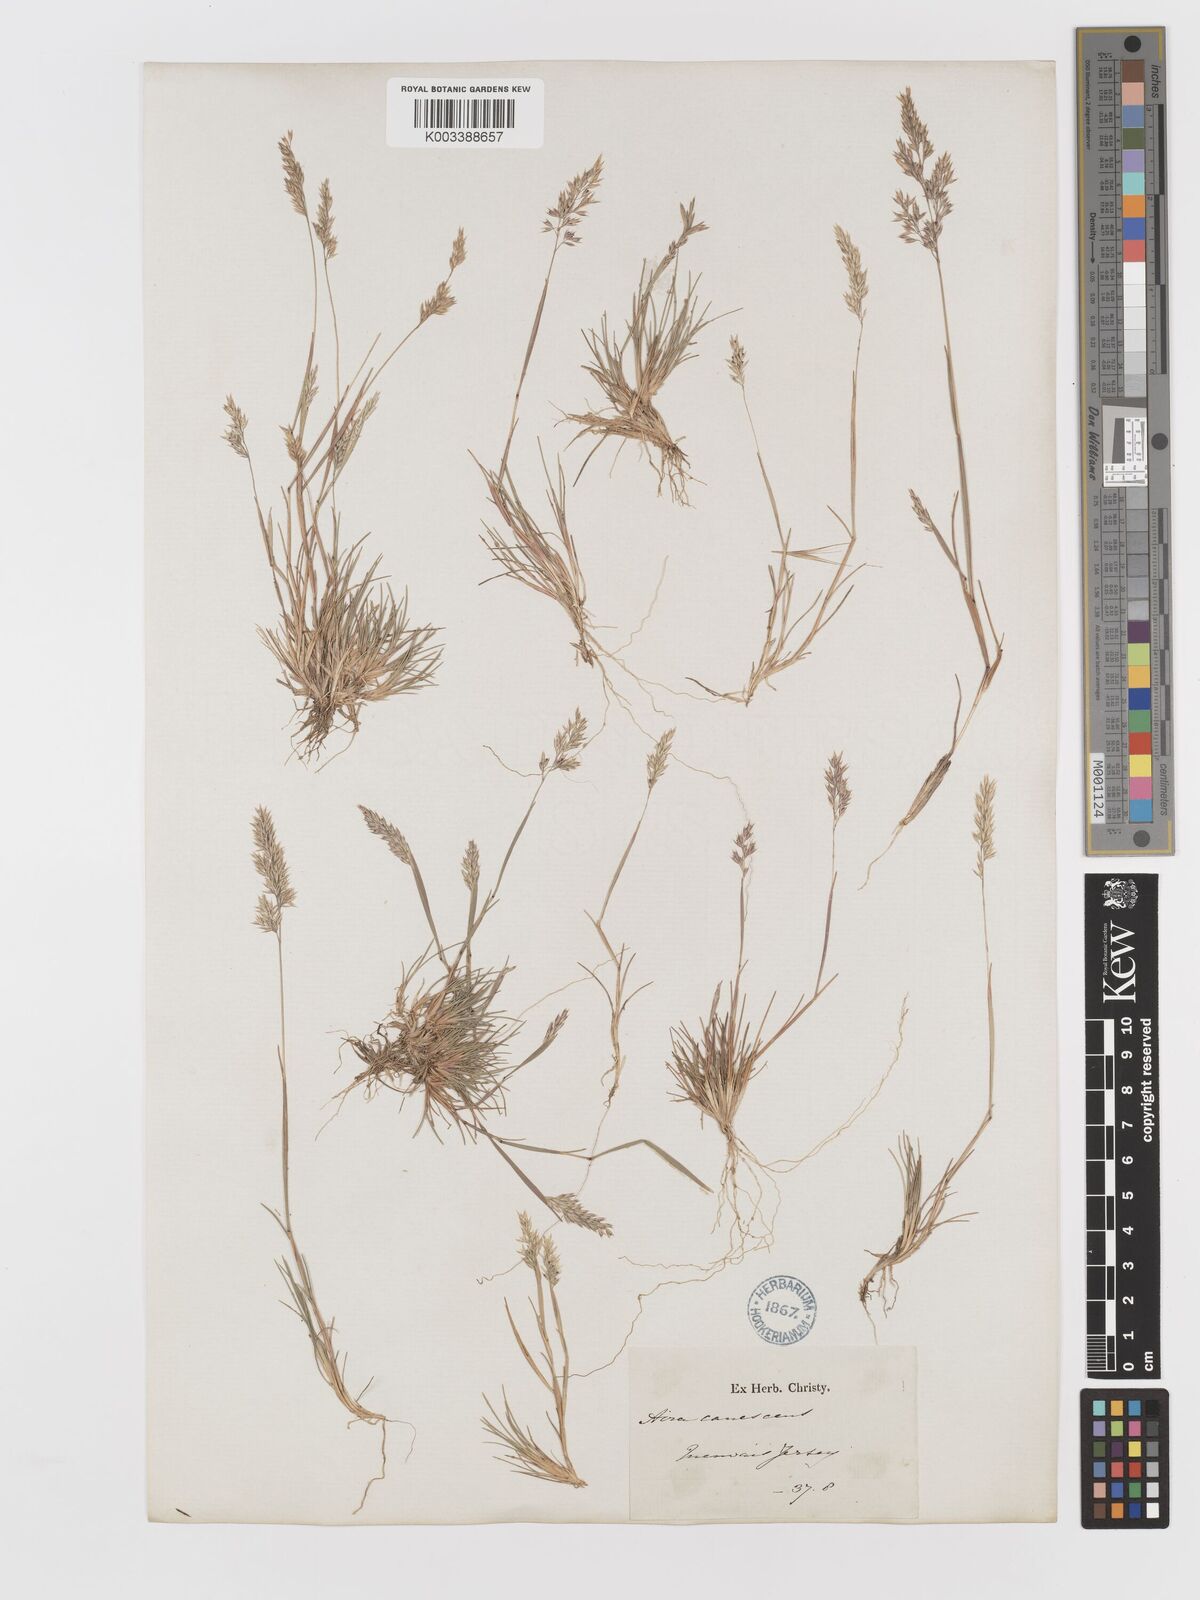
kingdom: Plantae
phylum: Tracheophyta
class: Liliopsida
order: Poales
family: Poaceae
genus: Corynephorus
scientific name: Corynephorus canescens
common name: Grey hair-grass
